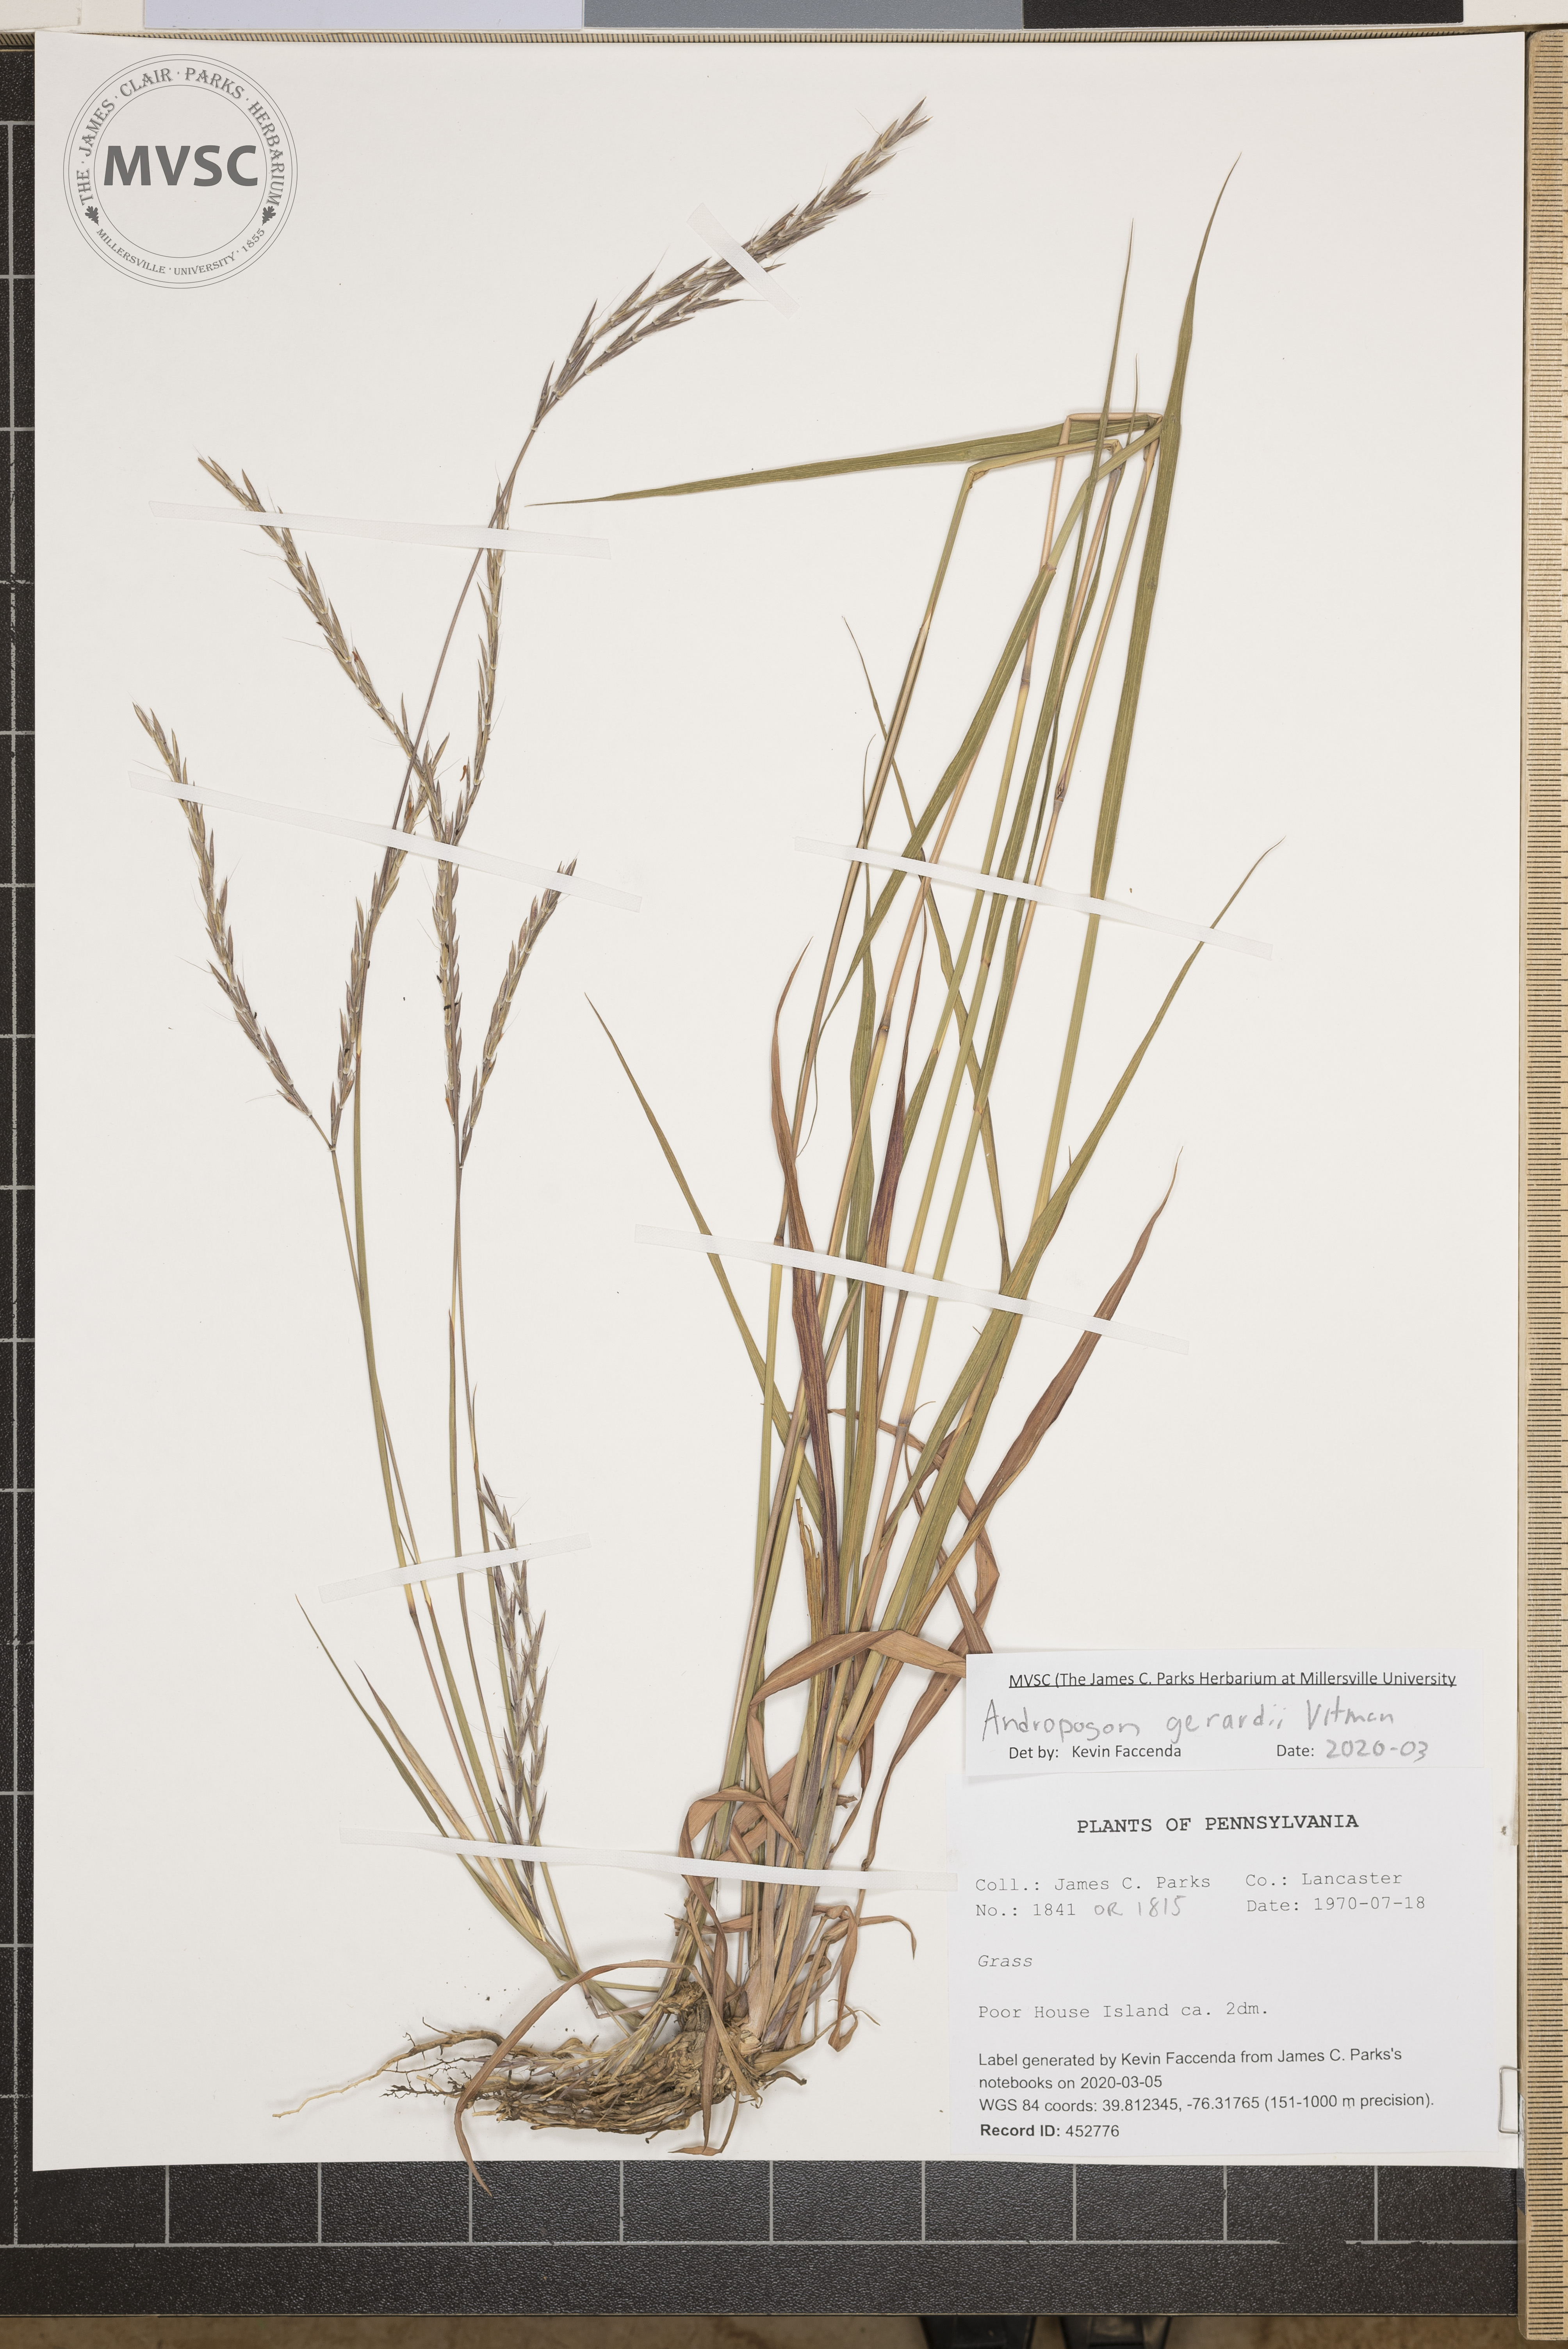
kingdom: Plantae
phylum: Tracheophyta
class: Liliopsida
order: Poales
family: Poaceae
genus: Andropogon
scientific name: Andropogon gerardi
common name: Big bluestem
